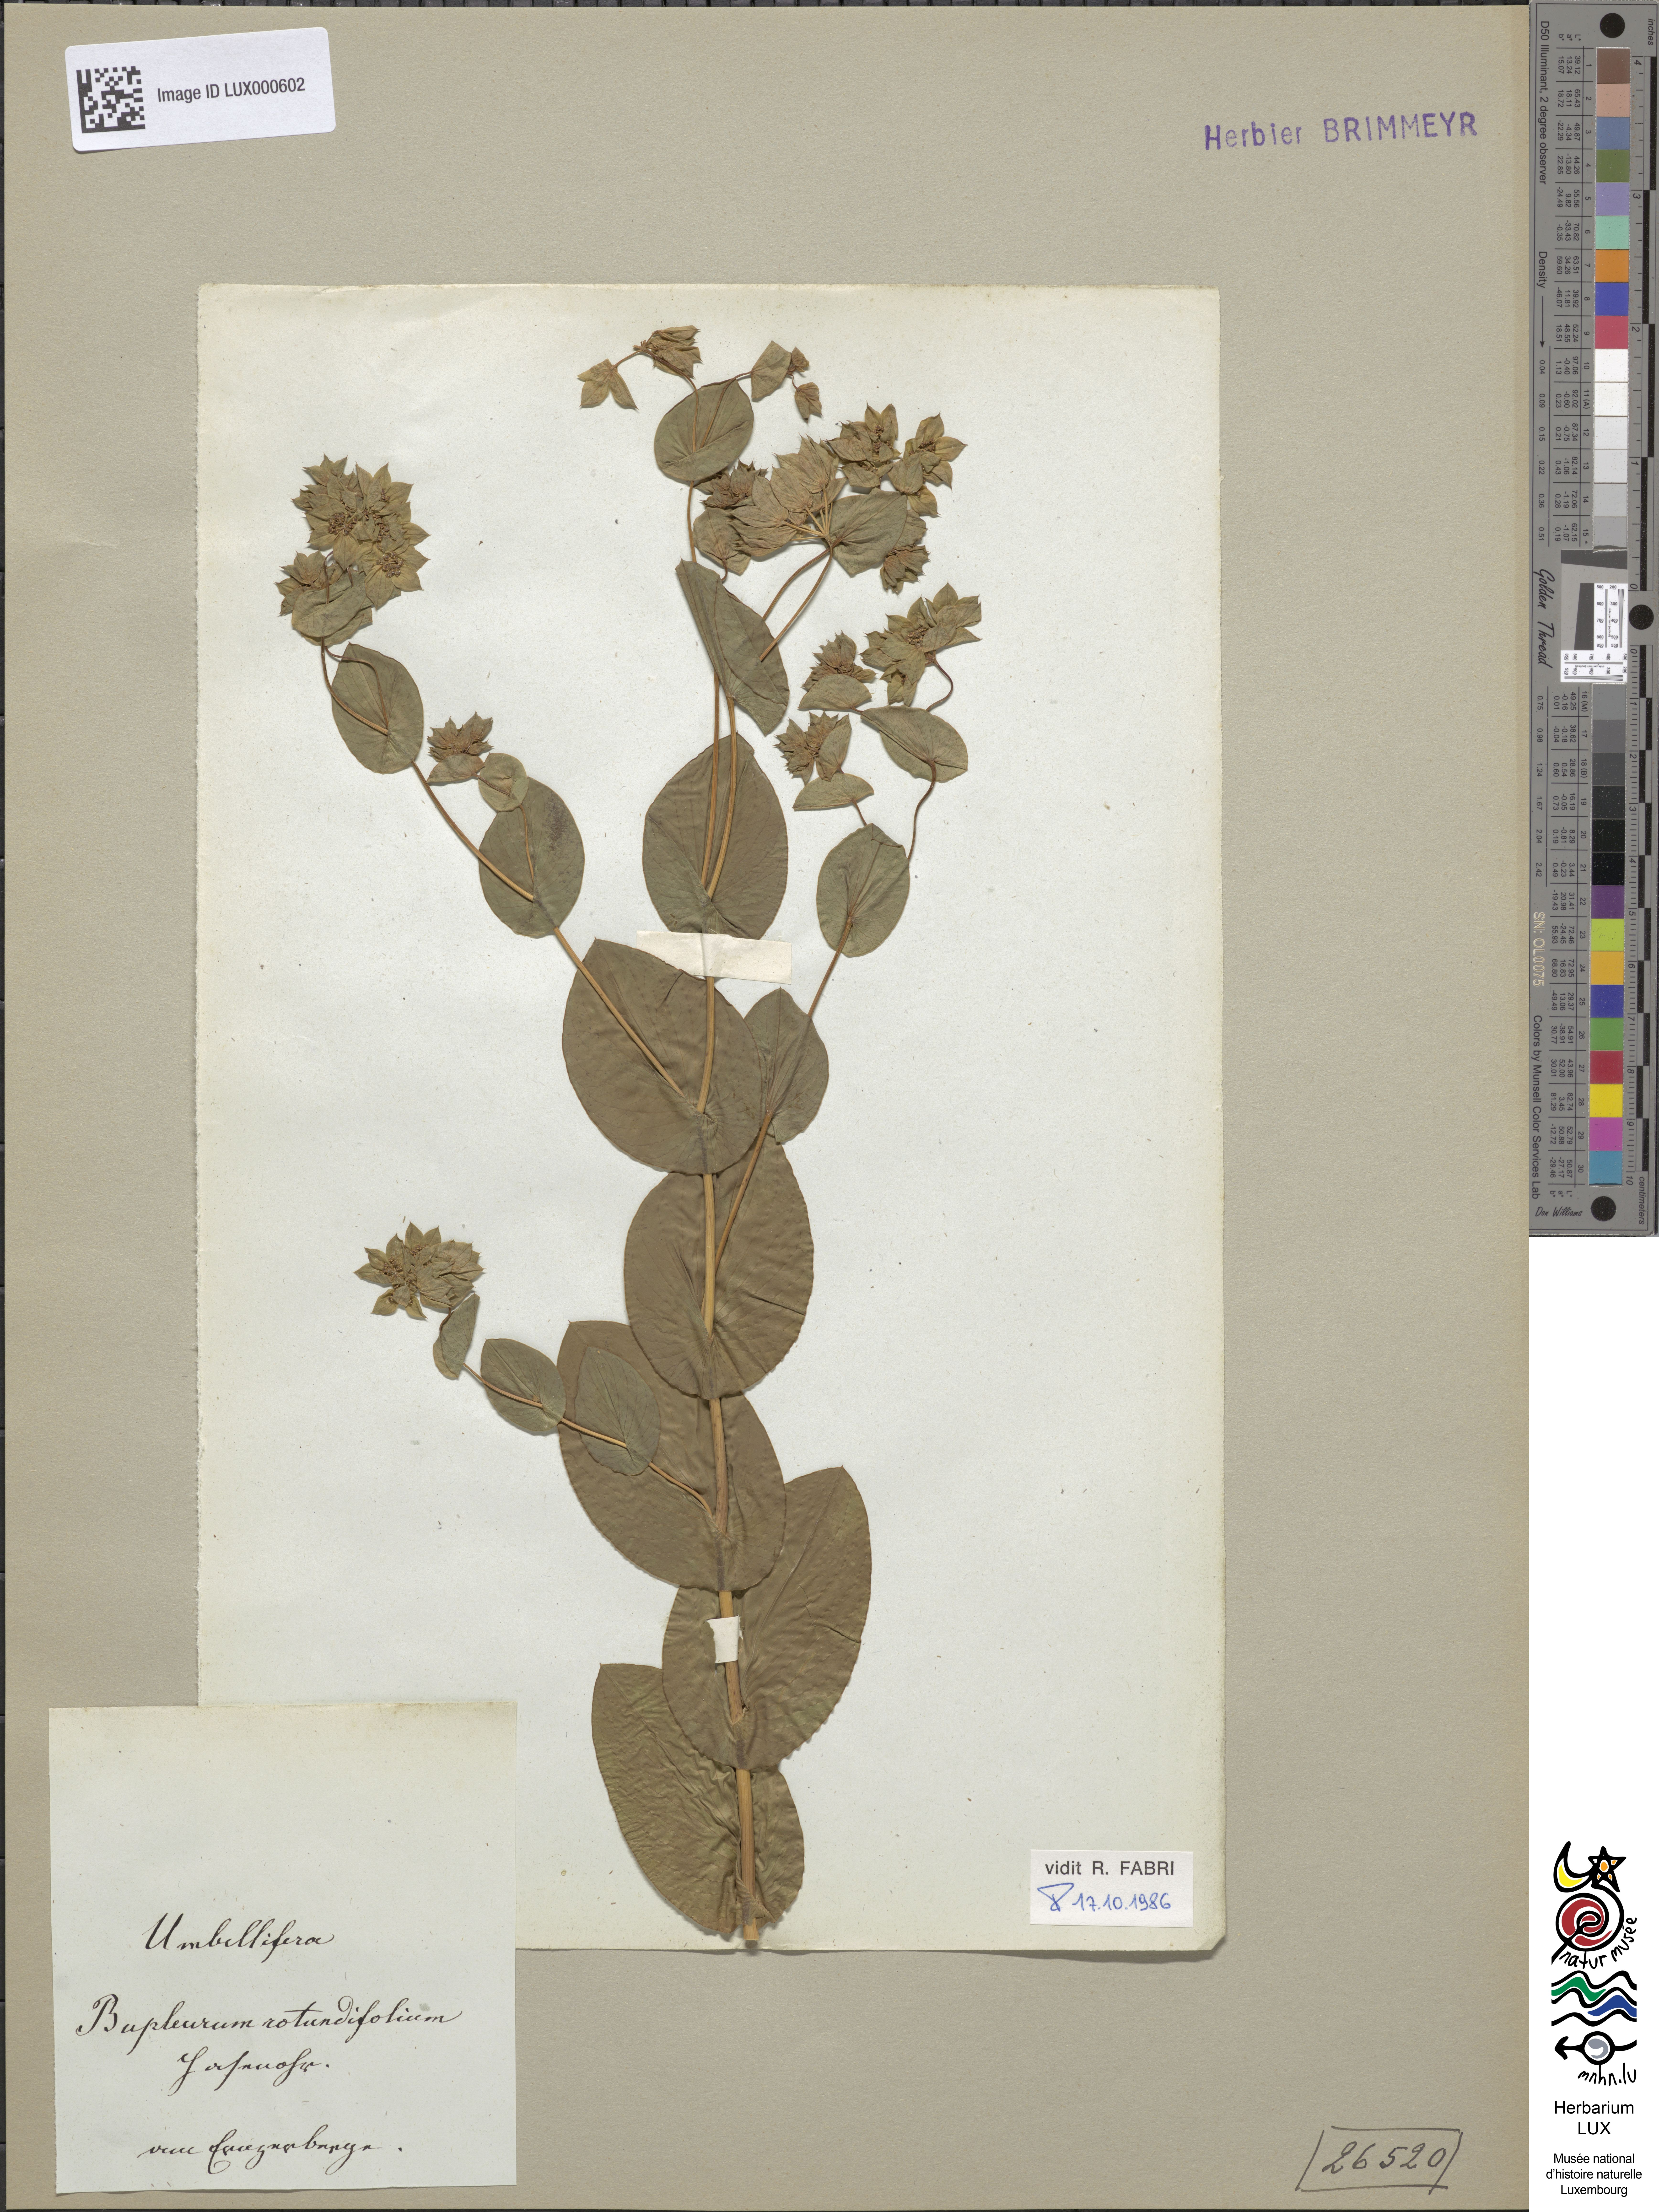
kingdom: Plantae
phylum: Tracheophyta
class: Magnoliopsida
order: Apiales
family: Apiaceae
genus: Bupleurum
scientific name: Bupleurum rotundifolium
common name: Thorow-wax
